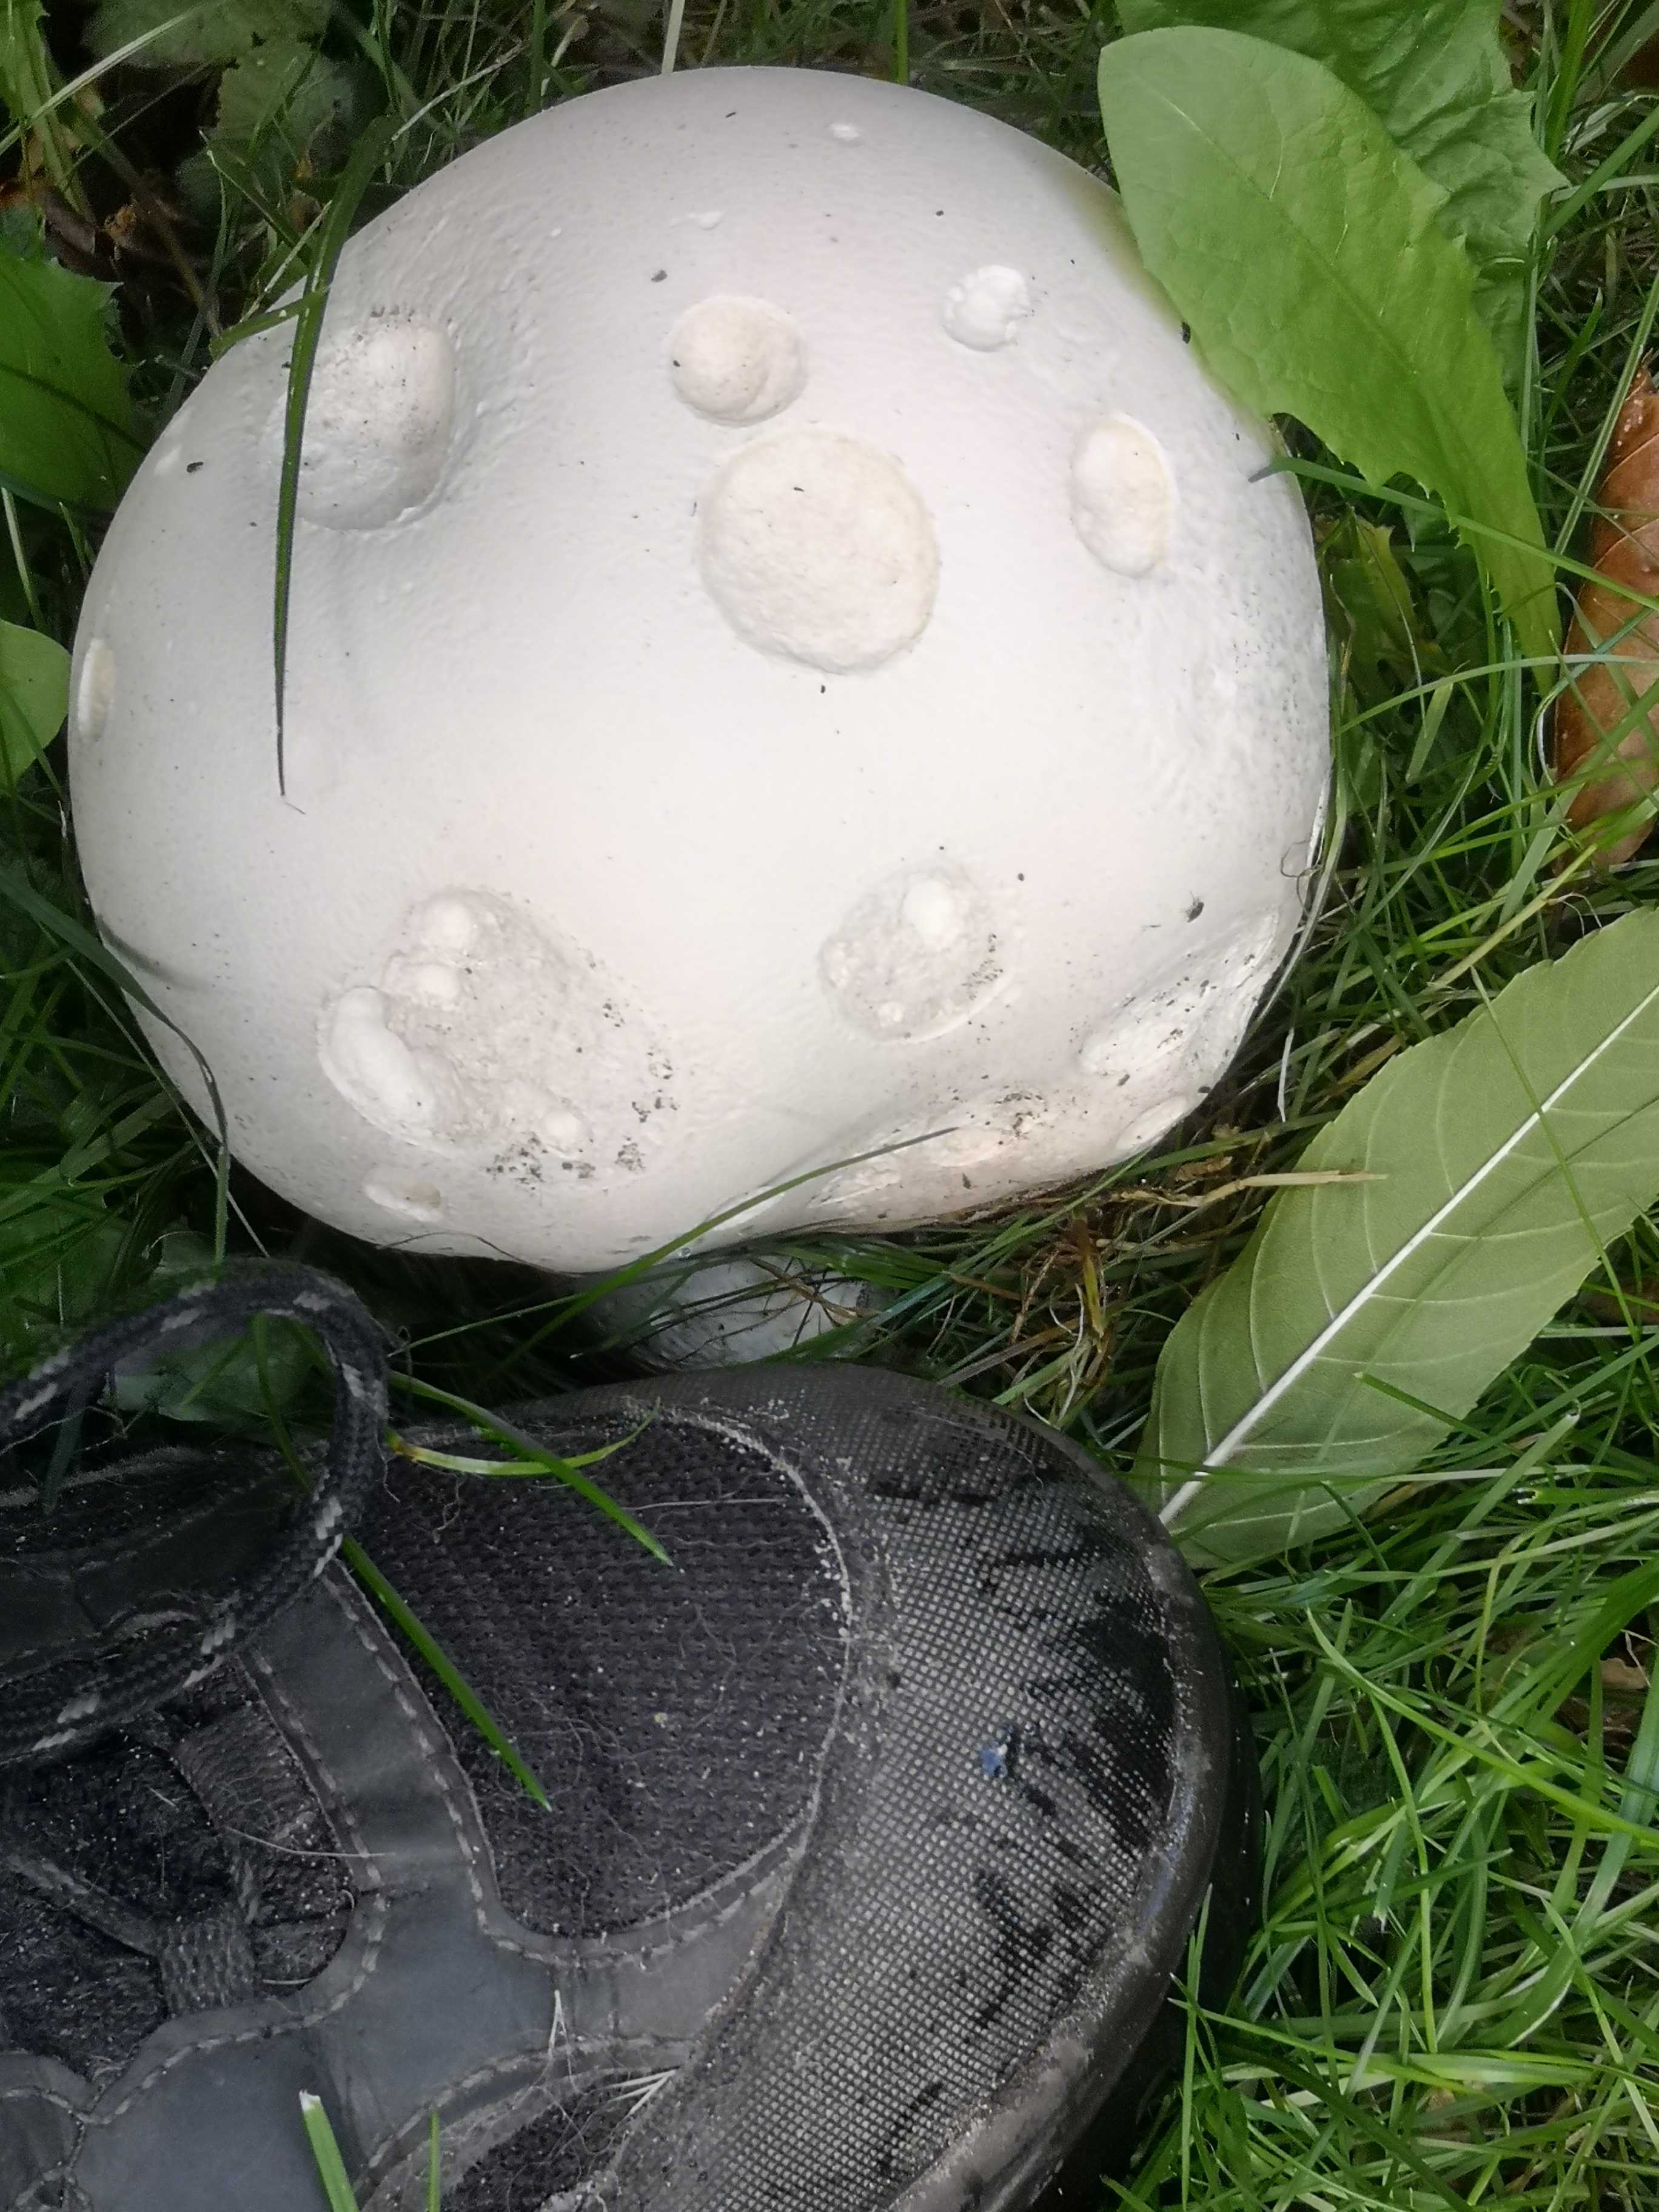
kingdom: Fungi
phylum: Basidiomycota
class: Agaricomycetes
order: Agaricales
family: Lycoperdaceae
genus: Calvatia
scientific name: Calvatia gigantea
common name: kæmpestøvbold
